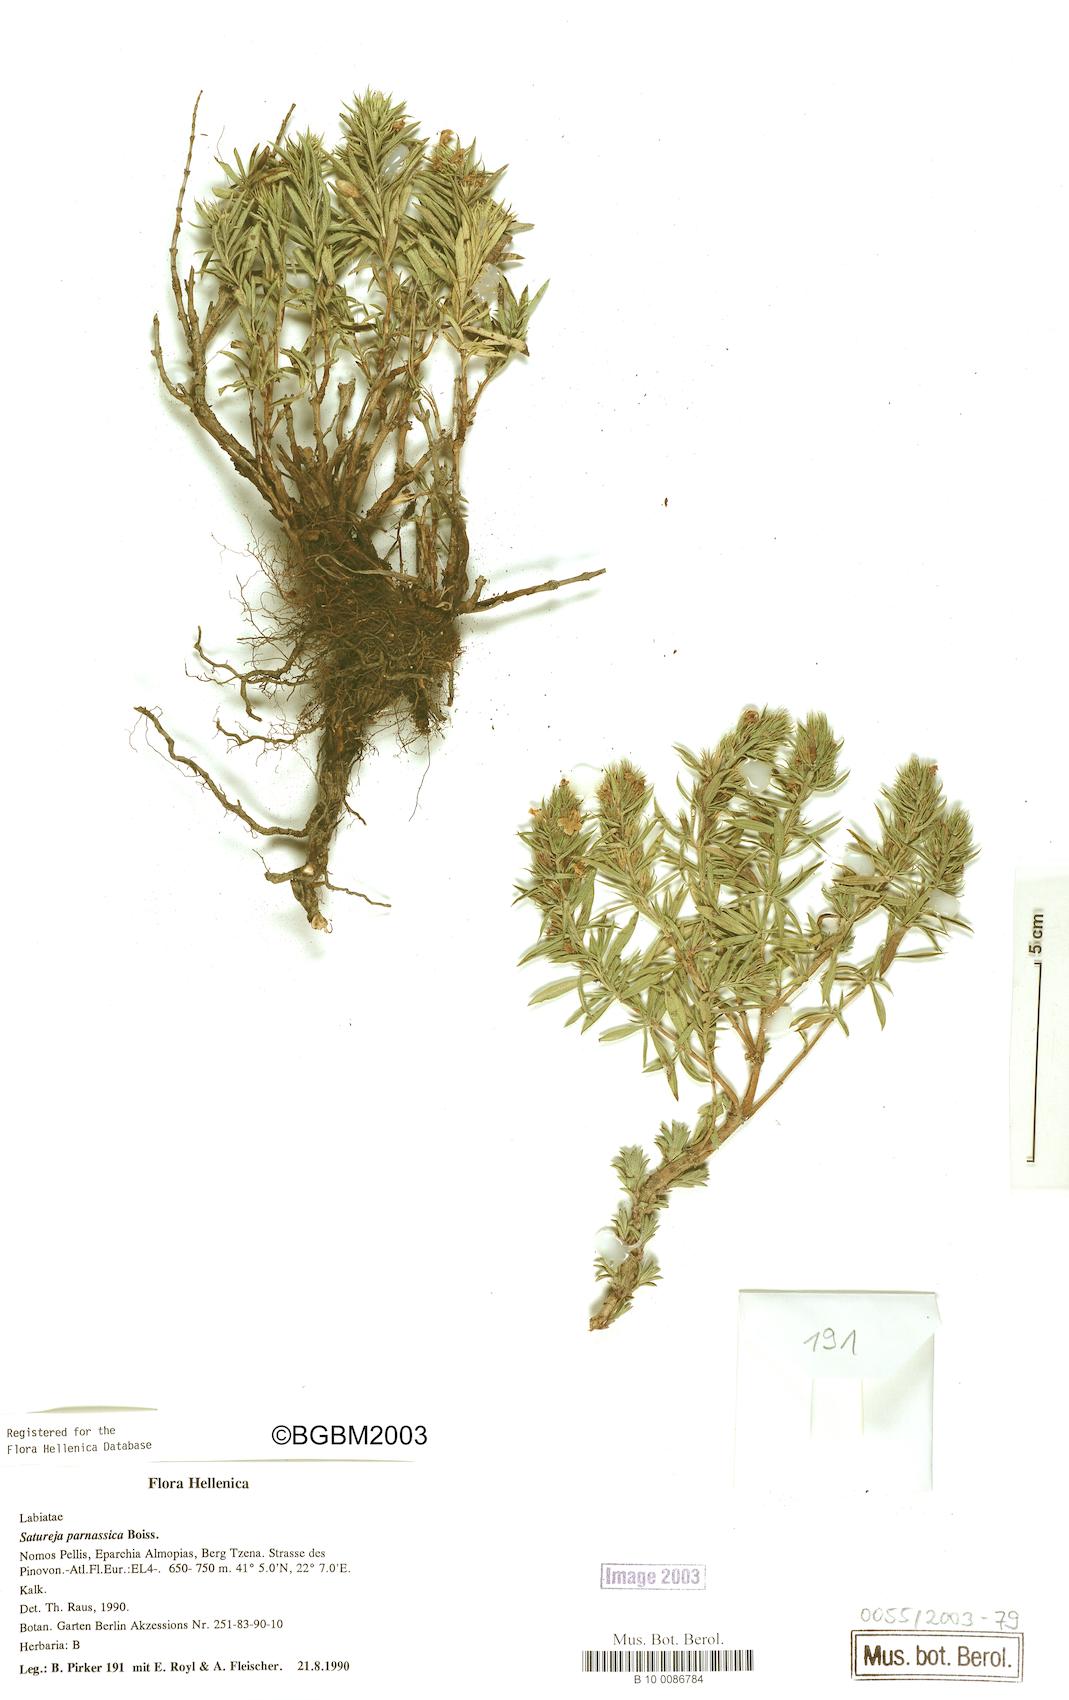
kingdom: Plantae
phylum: Tracheophyta
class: Magnoliopsida
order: Lamiales
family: Lamiaceae
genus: Satureja
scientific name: Satureja parnassica
